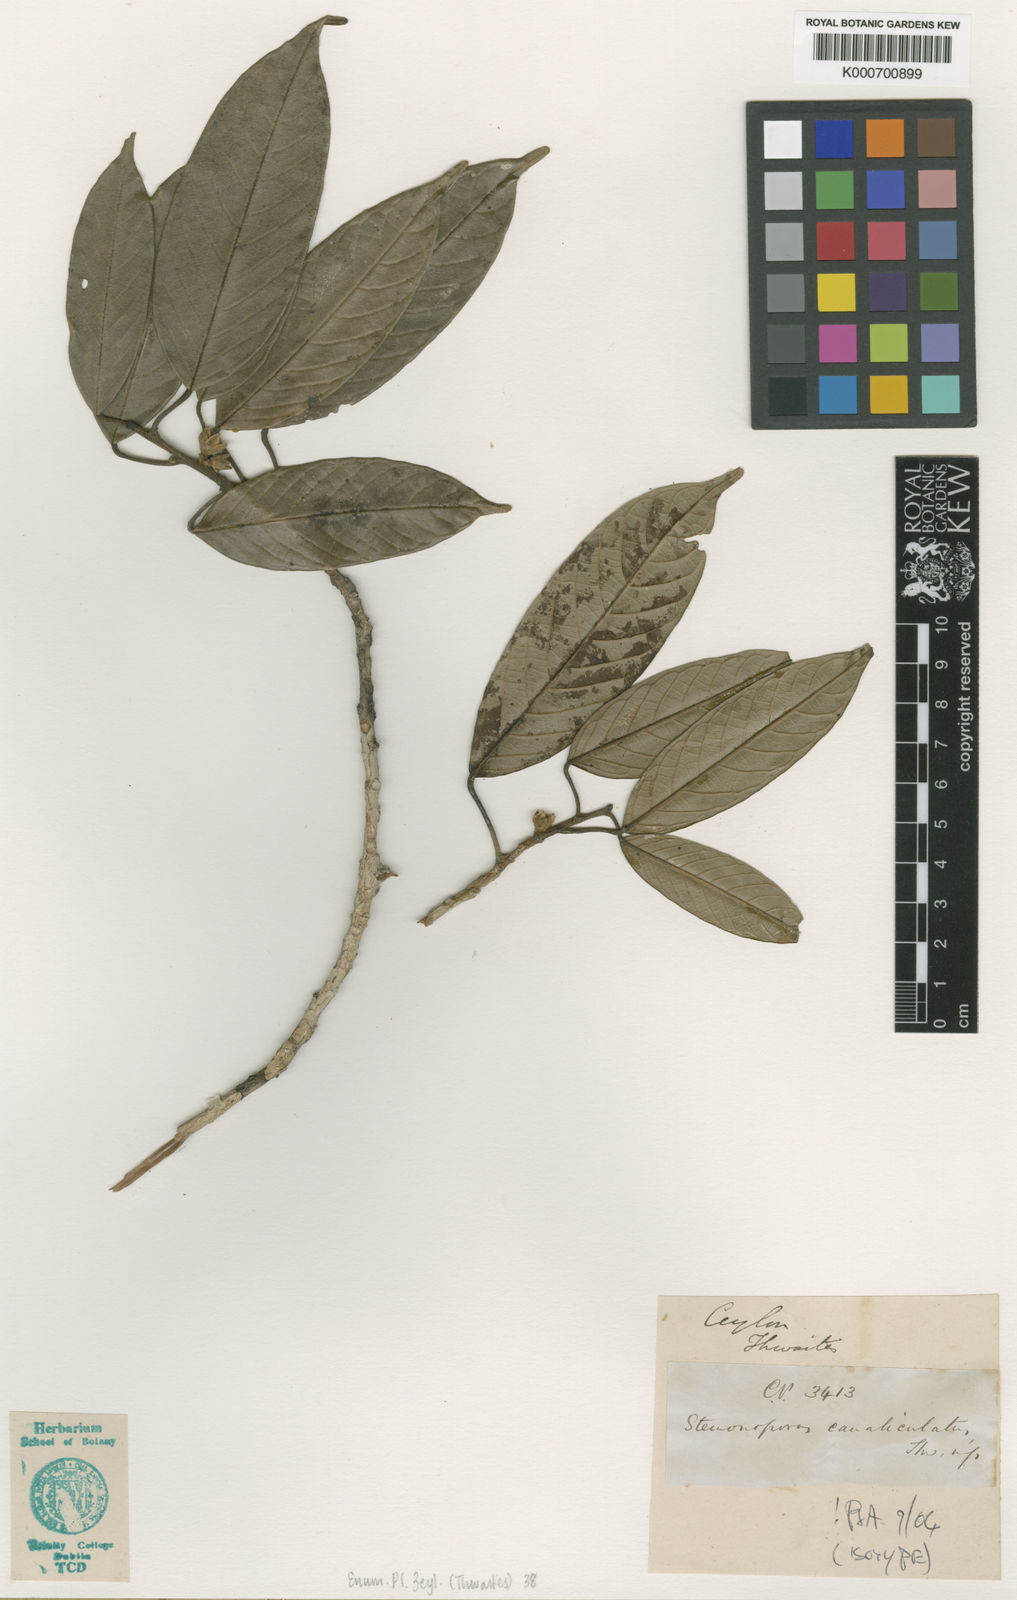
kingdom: Plantae
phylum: Tracheophyta
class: Magnoliopsida
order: Malvales
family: Dipterocarpaceae
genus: Stemonoporus
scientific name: Stemonoporus canaliculatus
